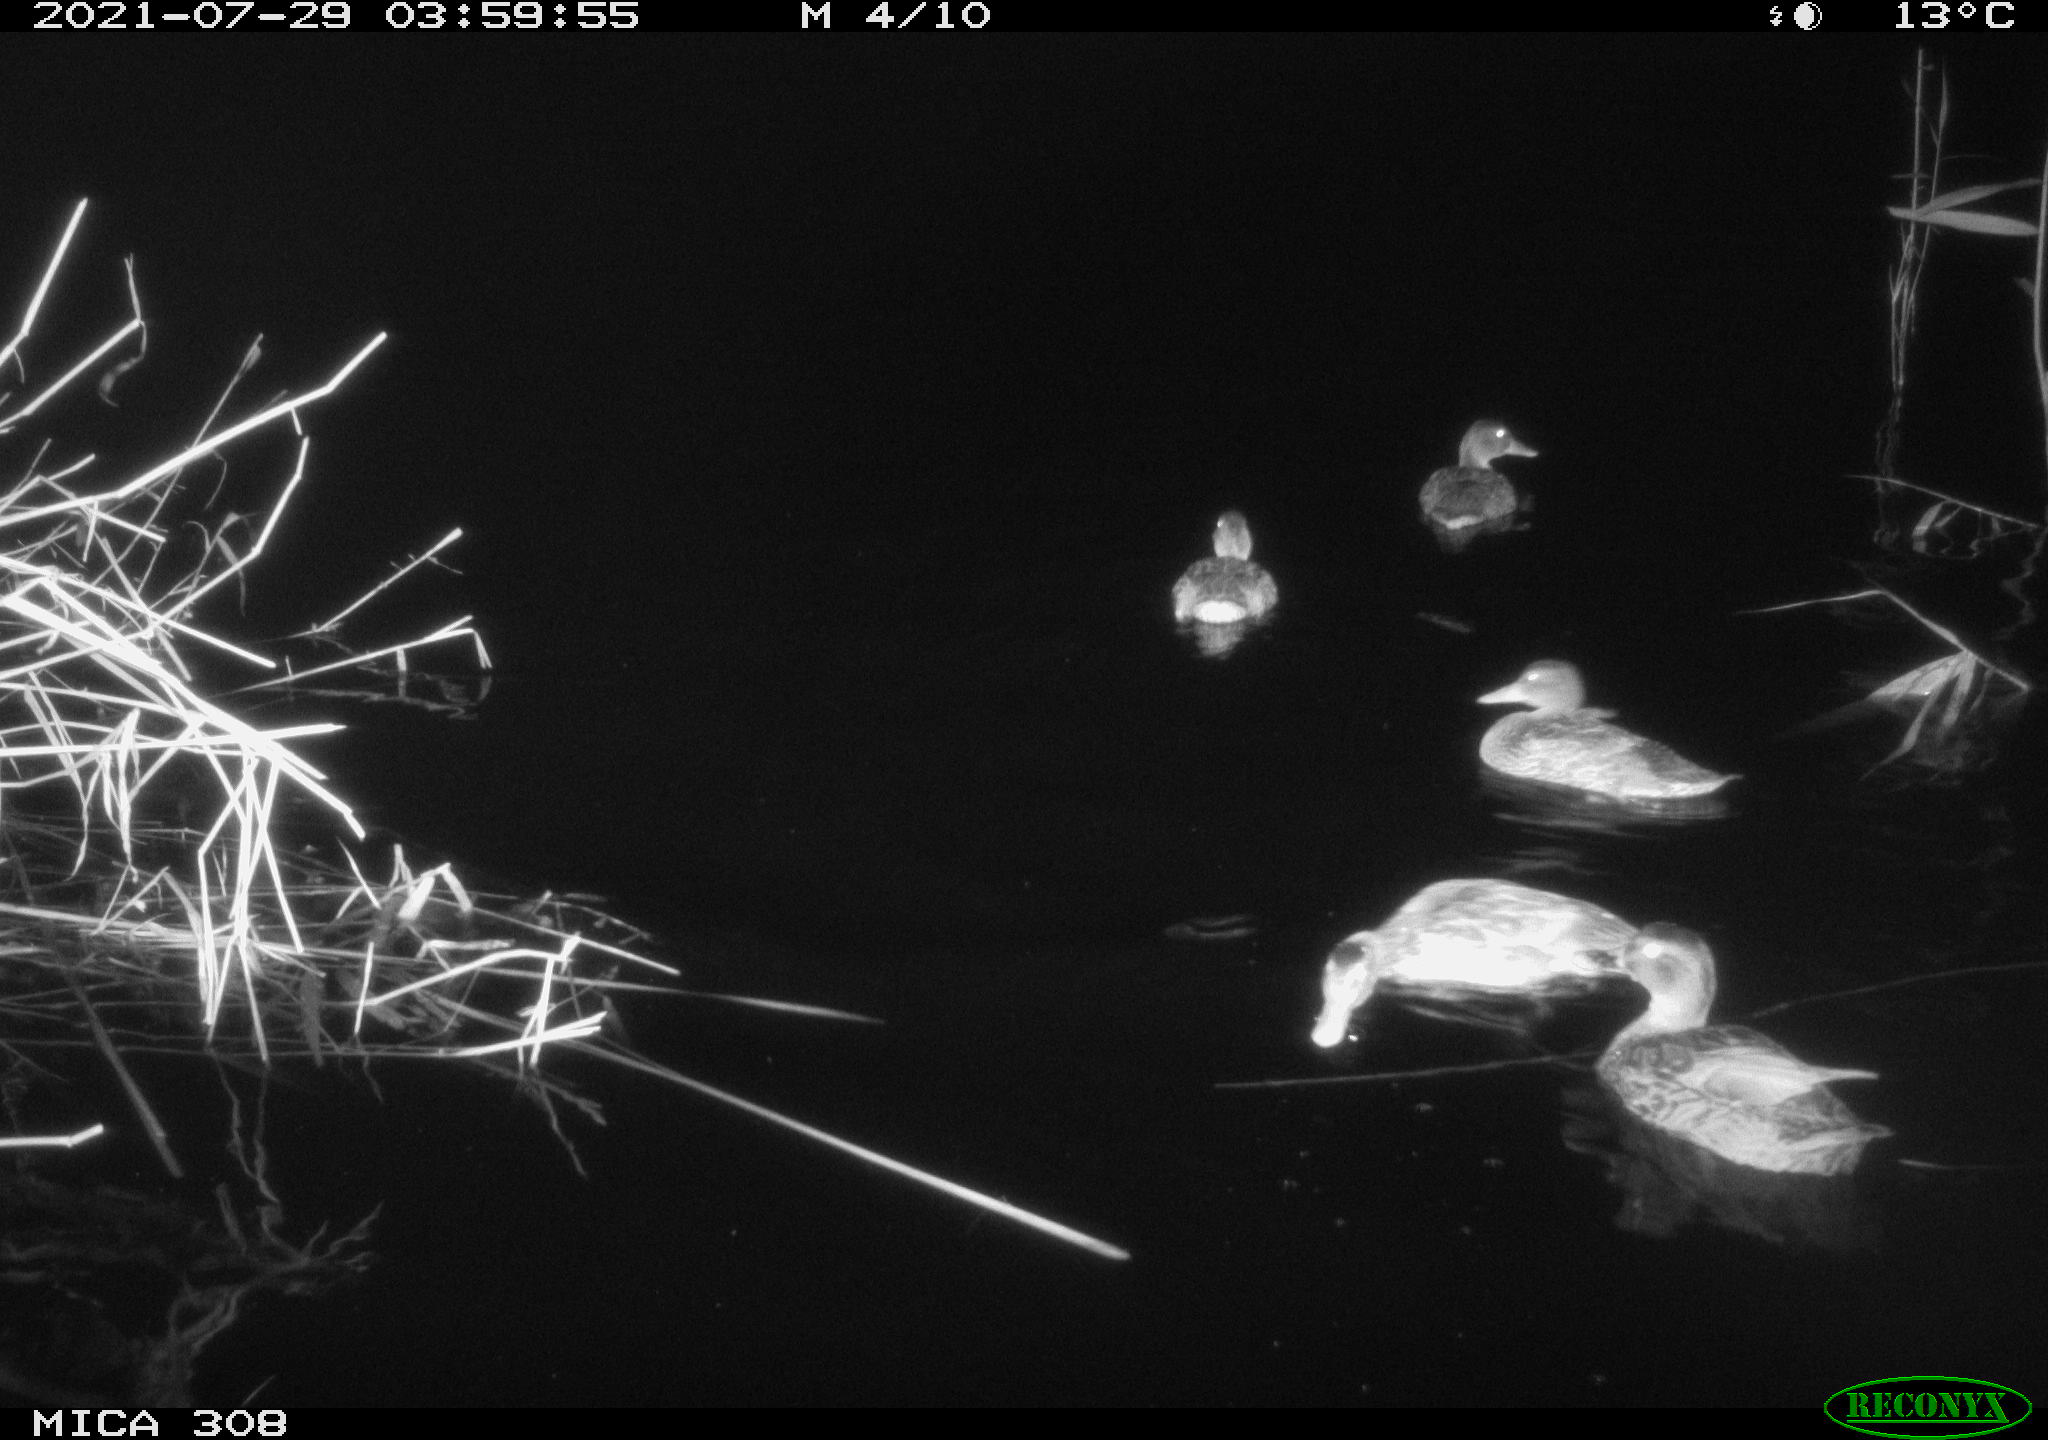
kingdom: Animalia
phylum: Chordata
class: Aves
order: Anseriformes
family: Anatidae
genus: Anas
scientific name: Anas platyrhynchos
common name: Mallard
